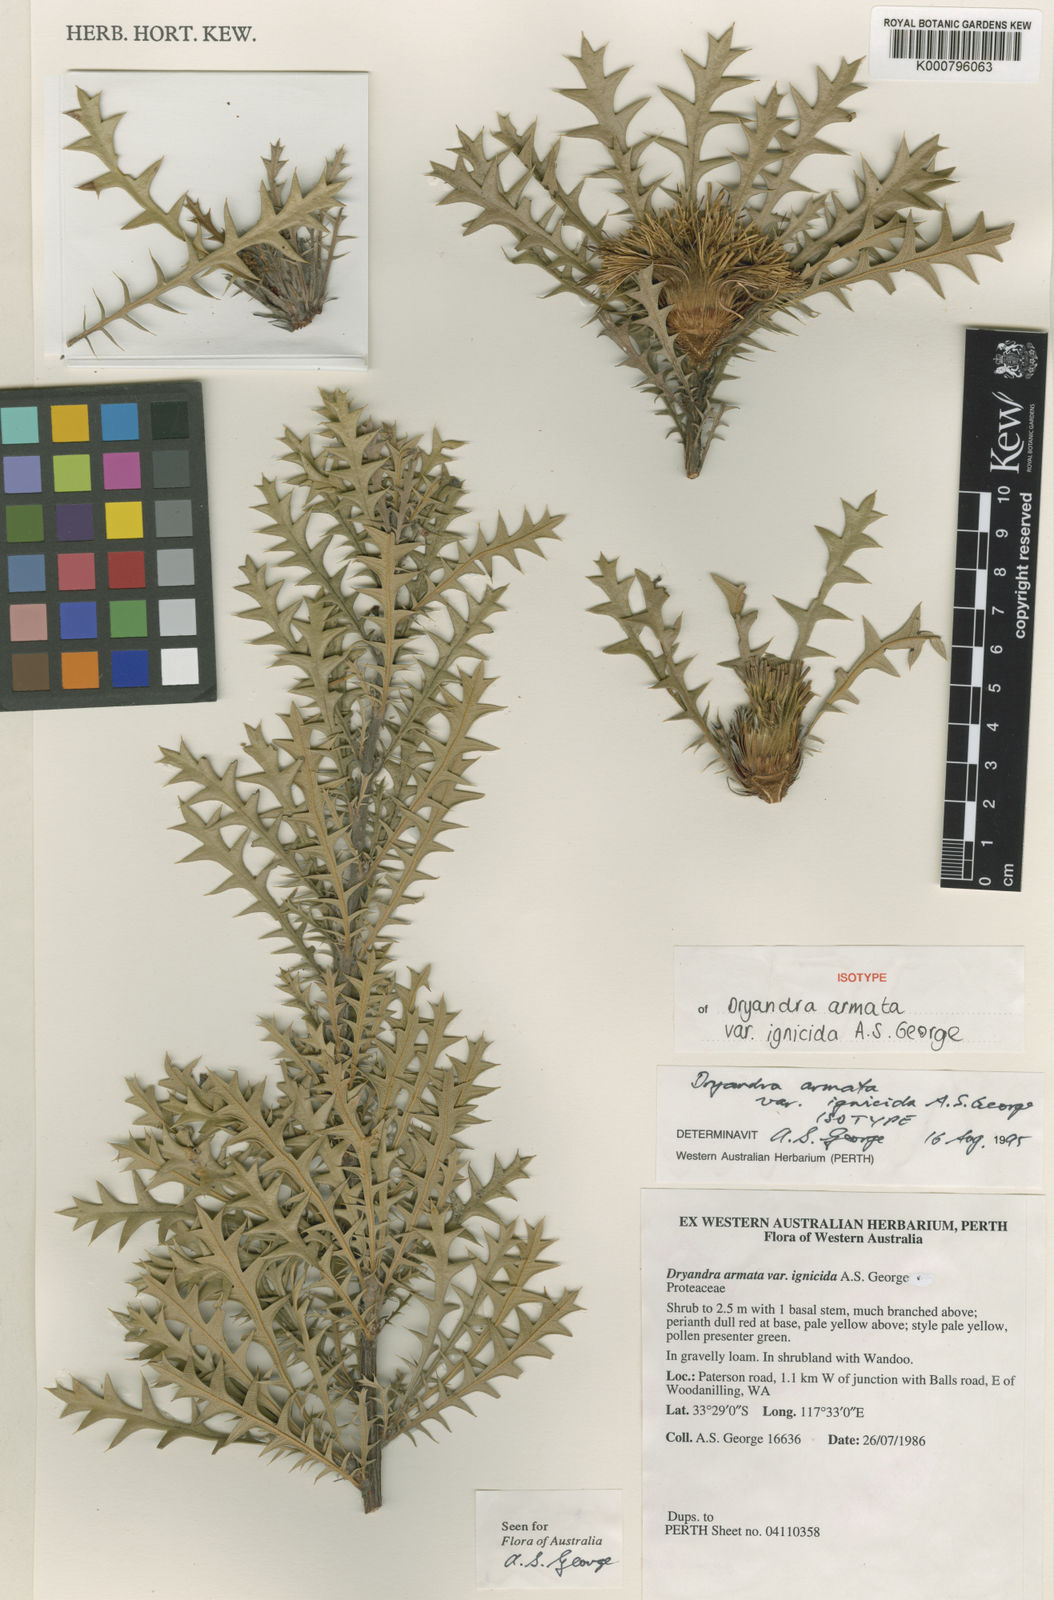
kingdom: Plantae
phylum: Tracheophyta
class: Magnoliopsida
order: Proteales
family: Proteaceae
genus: Banksia
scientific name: Banksia armata
